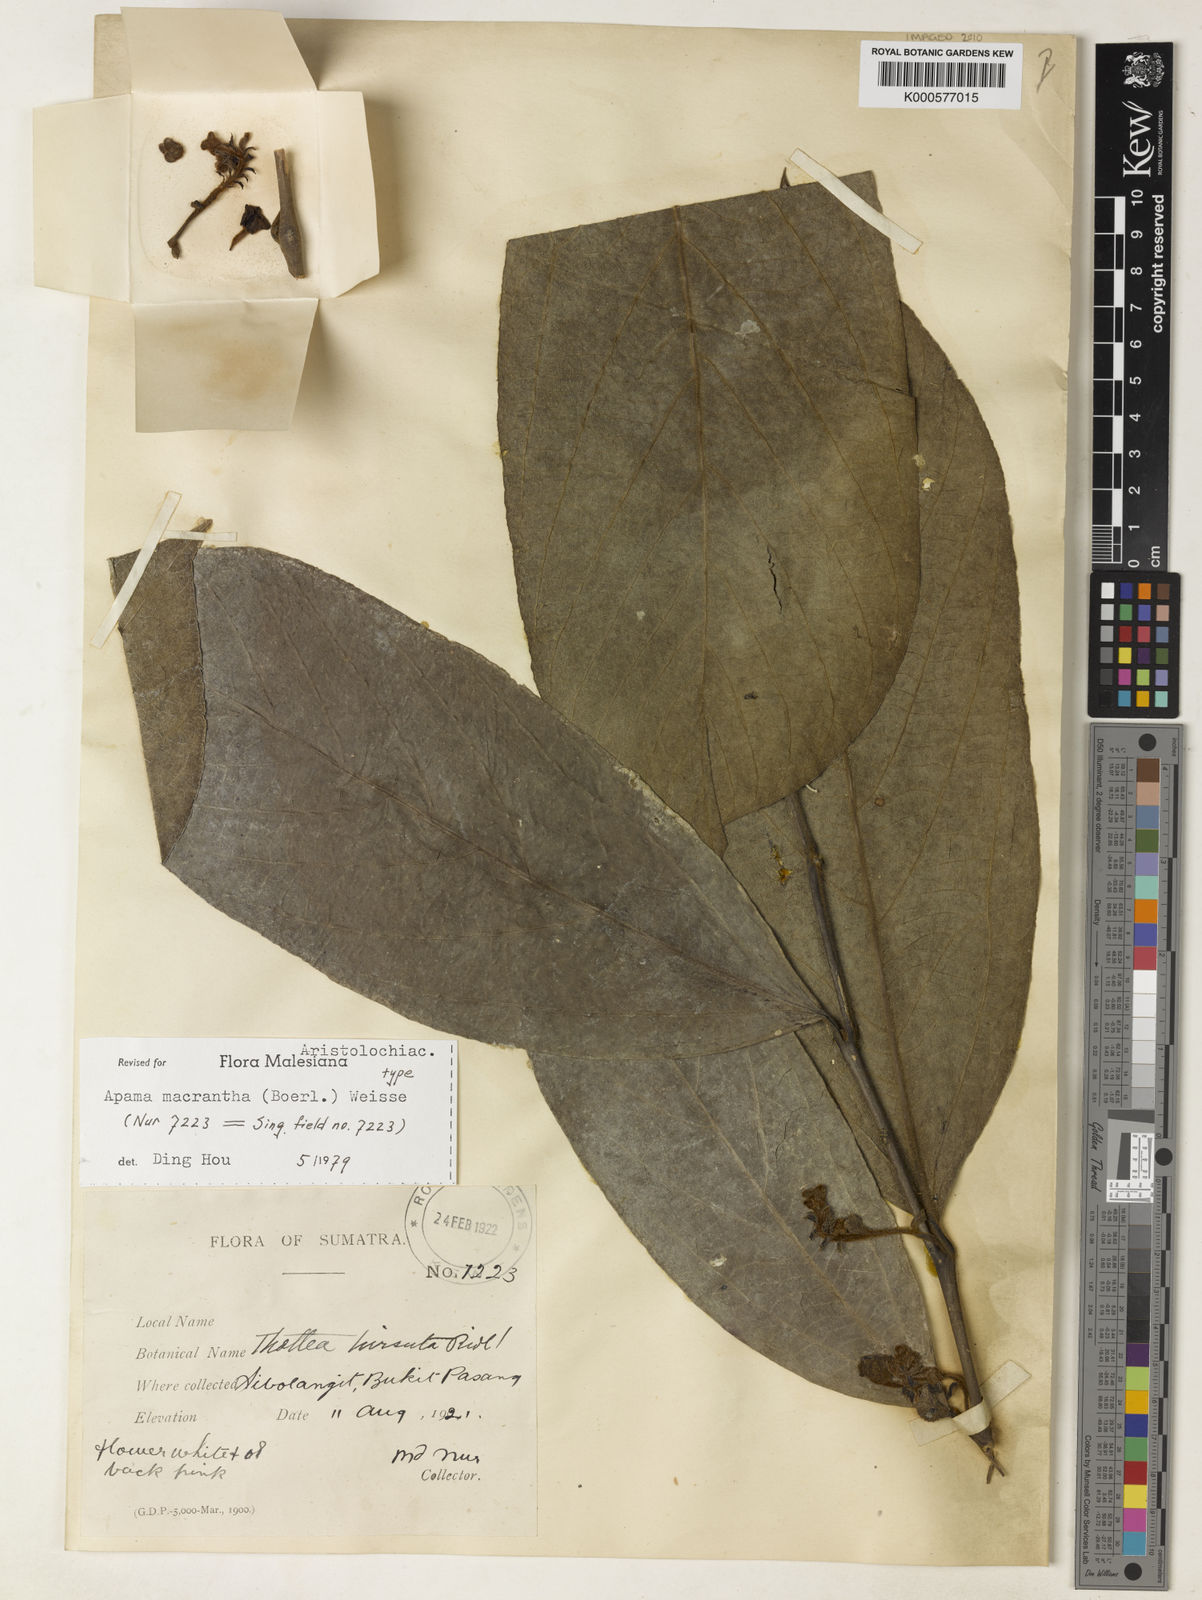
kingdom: Plantae
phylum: Tracheophyta
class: Magnoliopsida
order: Piperales
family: Aristolochiaceae
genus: Thottea
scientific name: Thottea macrantha
